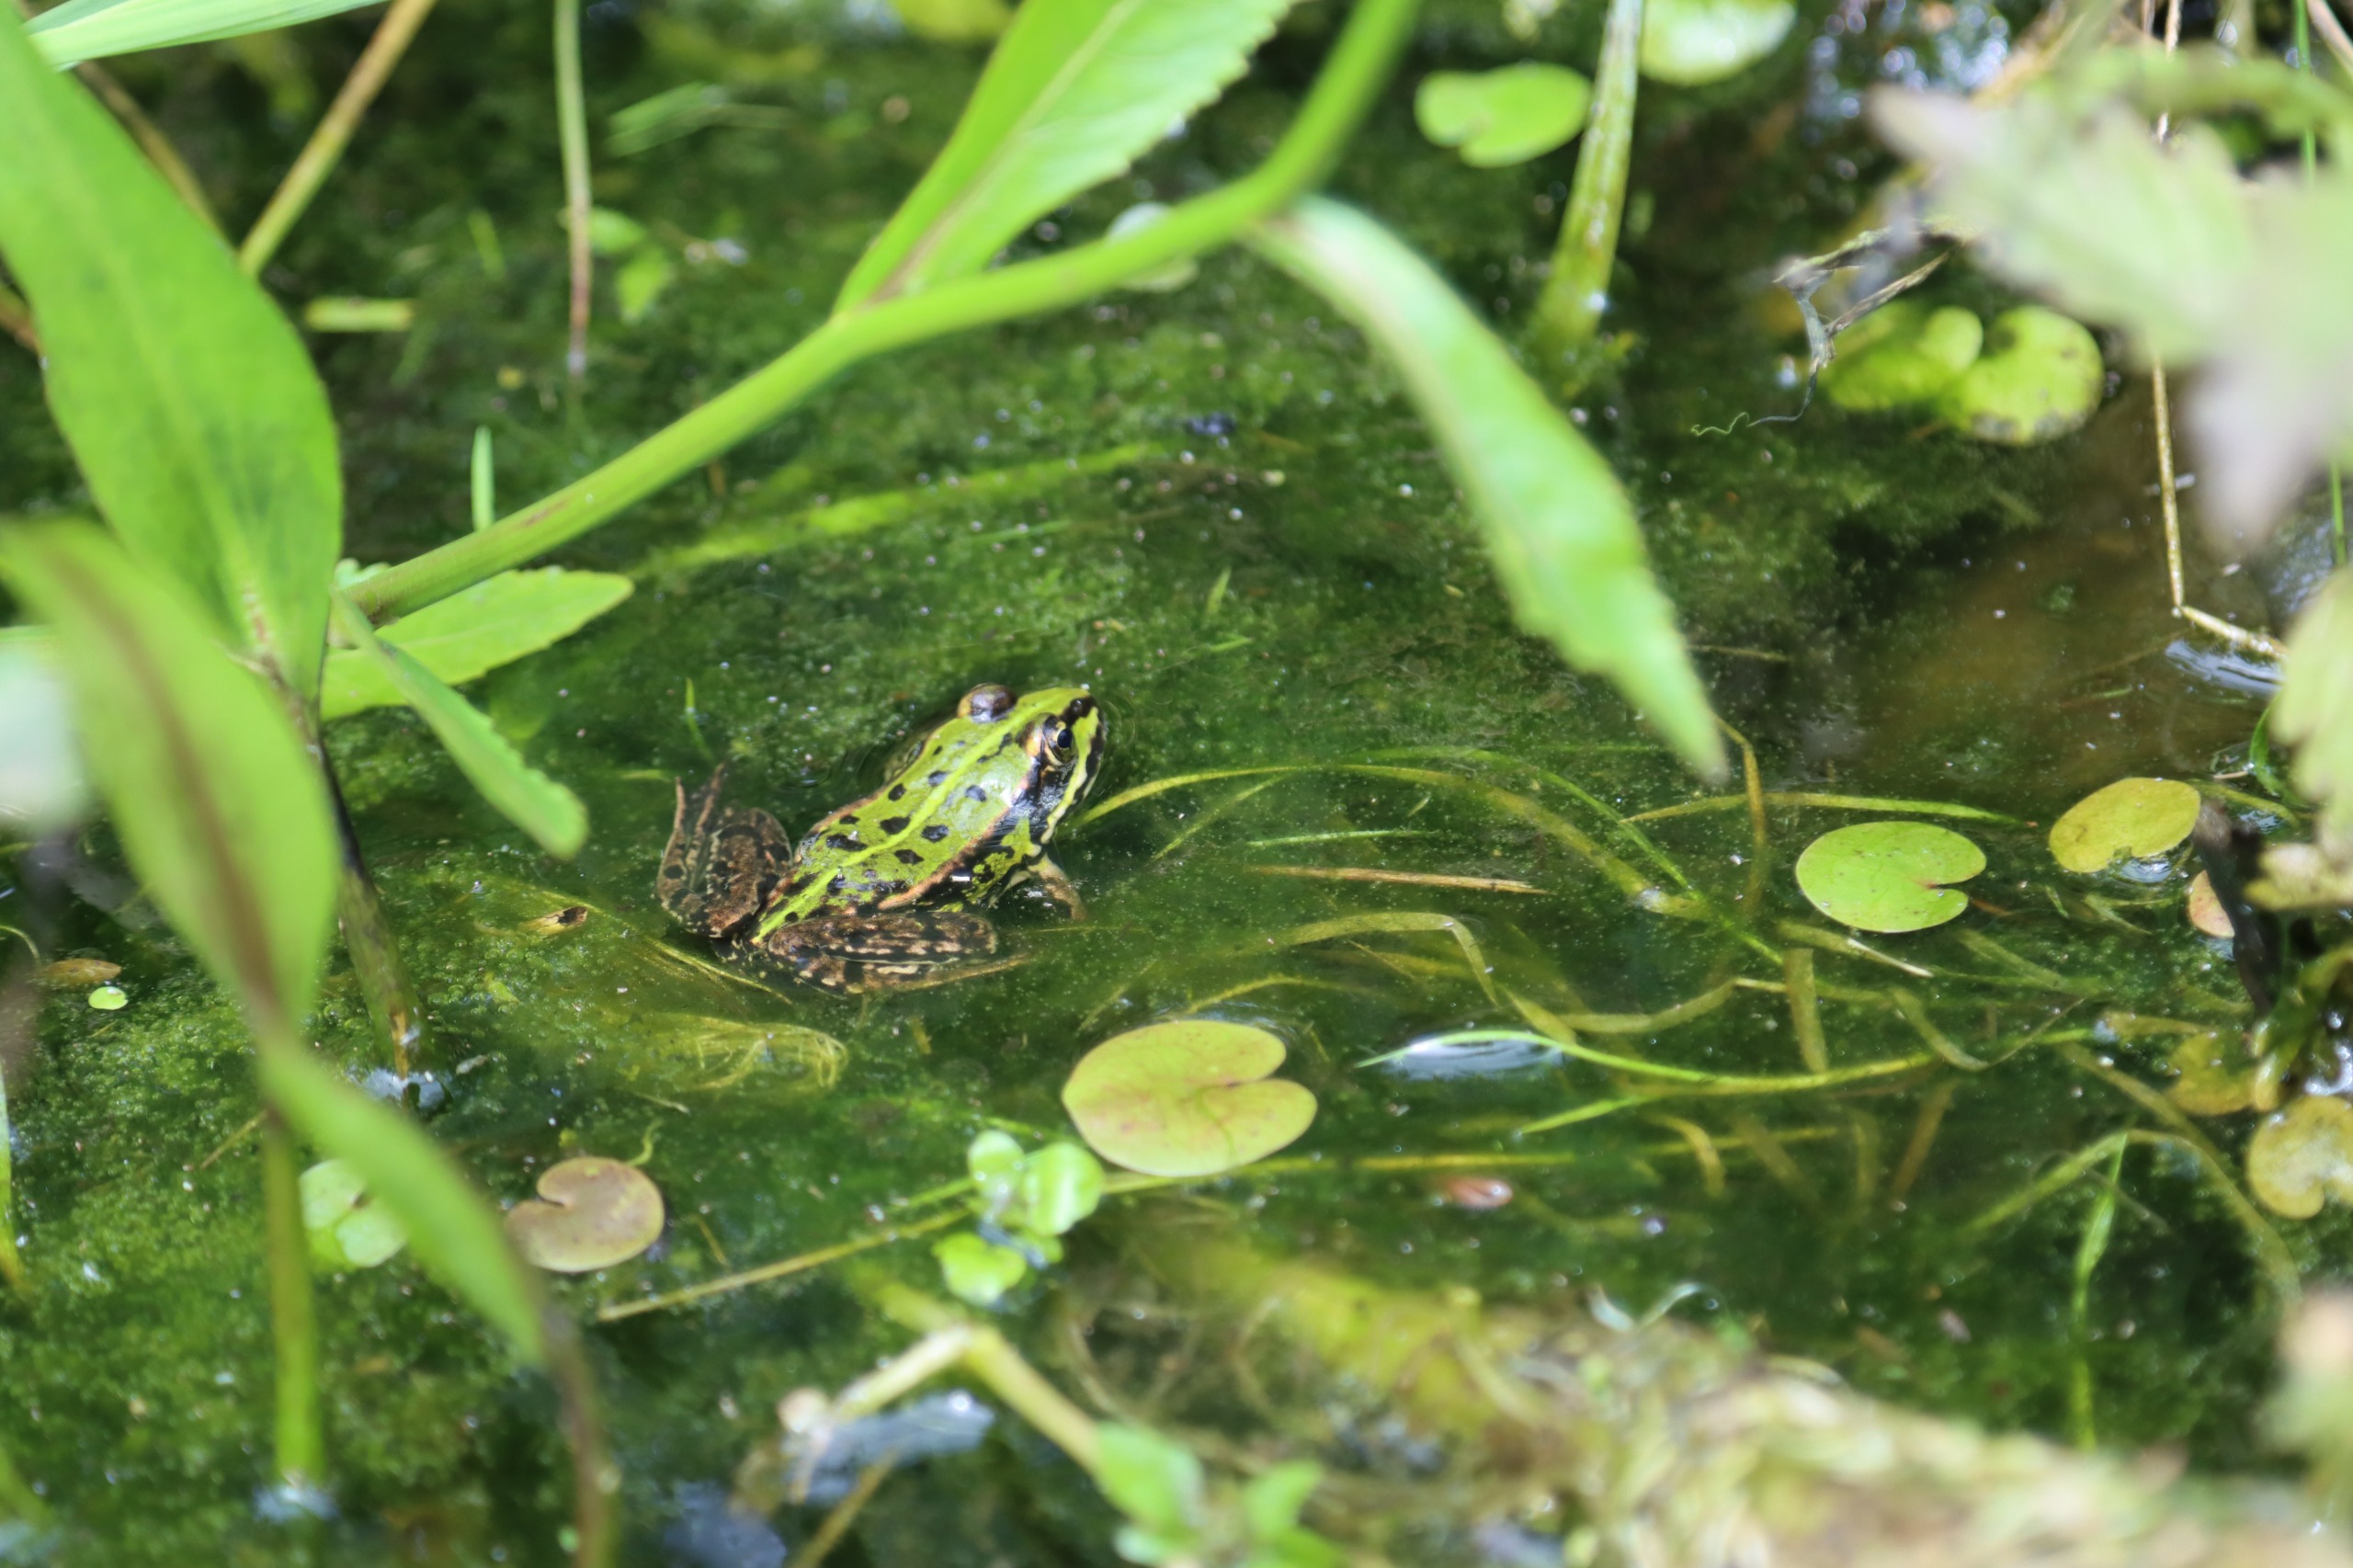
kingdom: Animalia
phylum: Chordata
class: Amphibia
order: Anura
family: Ranidae
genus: Pelophylax
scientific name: Pelophylax lessonae
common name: Grøn frø
